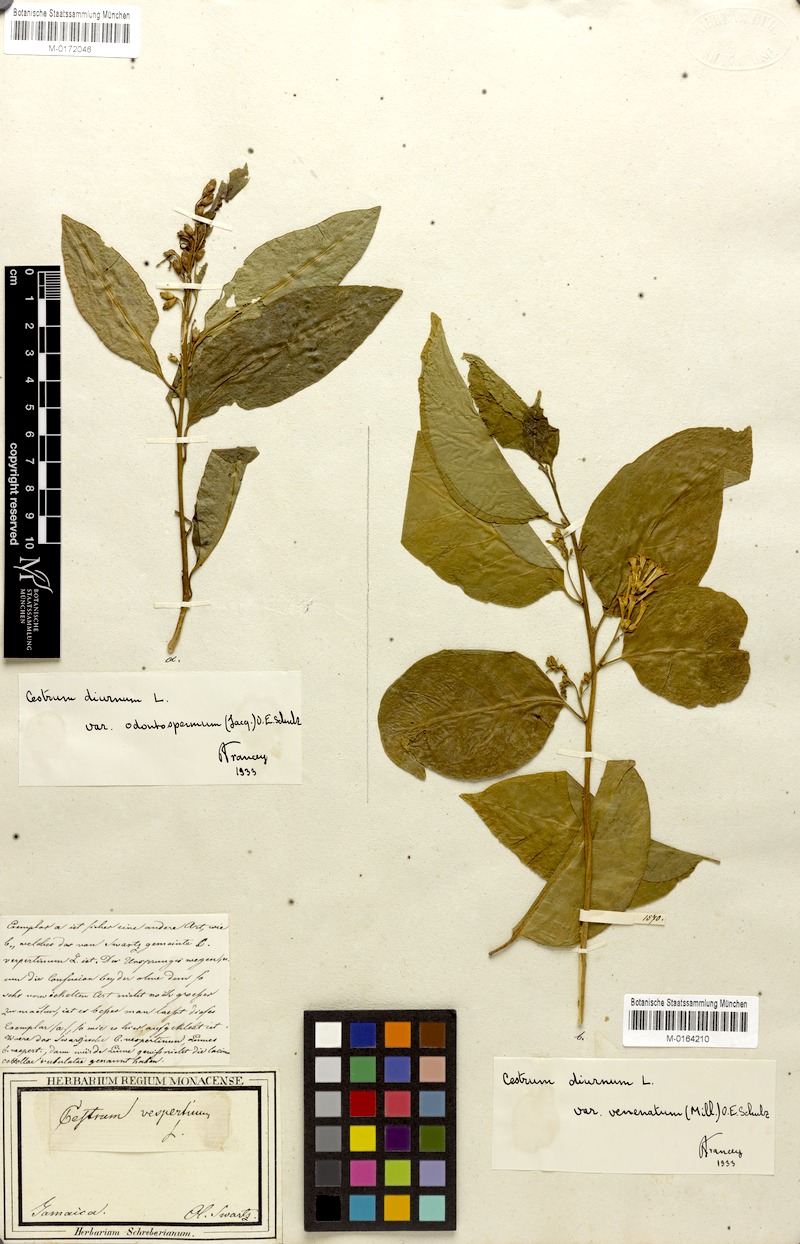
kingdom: Plantae
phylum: Tracheophyta
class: Magnoliopsida
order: Solanales
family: Solanaceae
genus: Cestrum
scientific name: Cestrum diurnum
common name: Day jessamine
